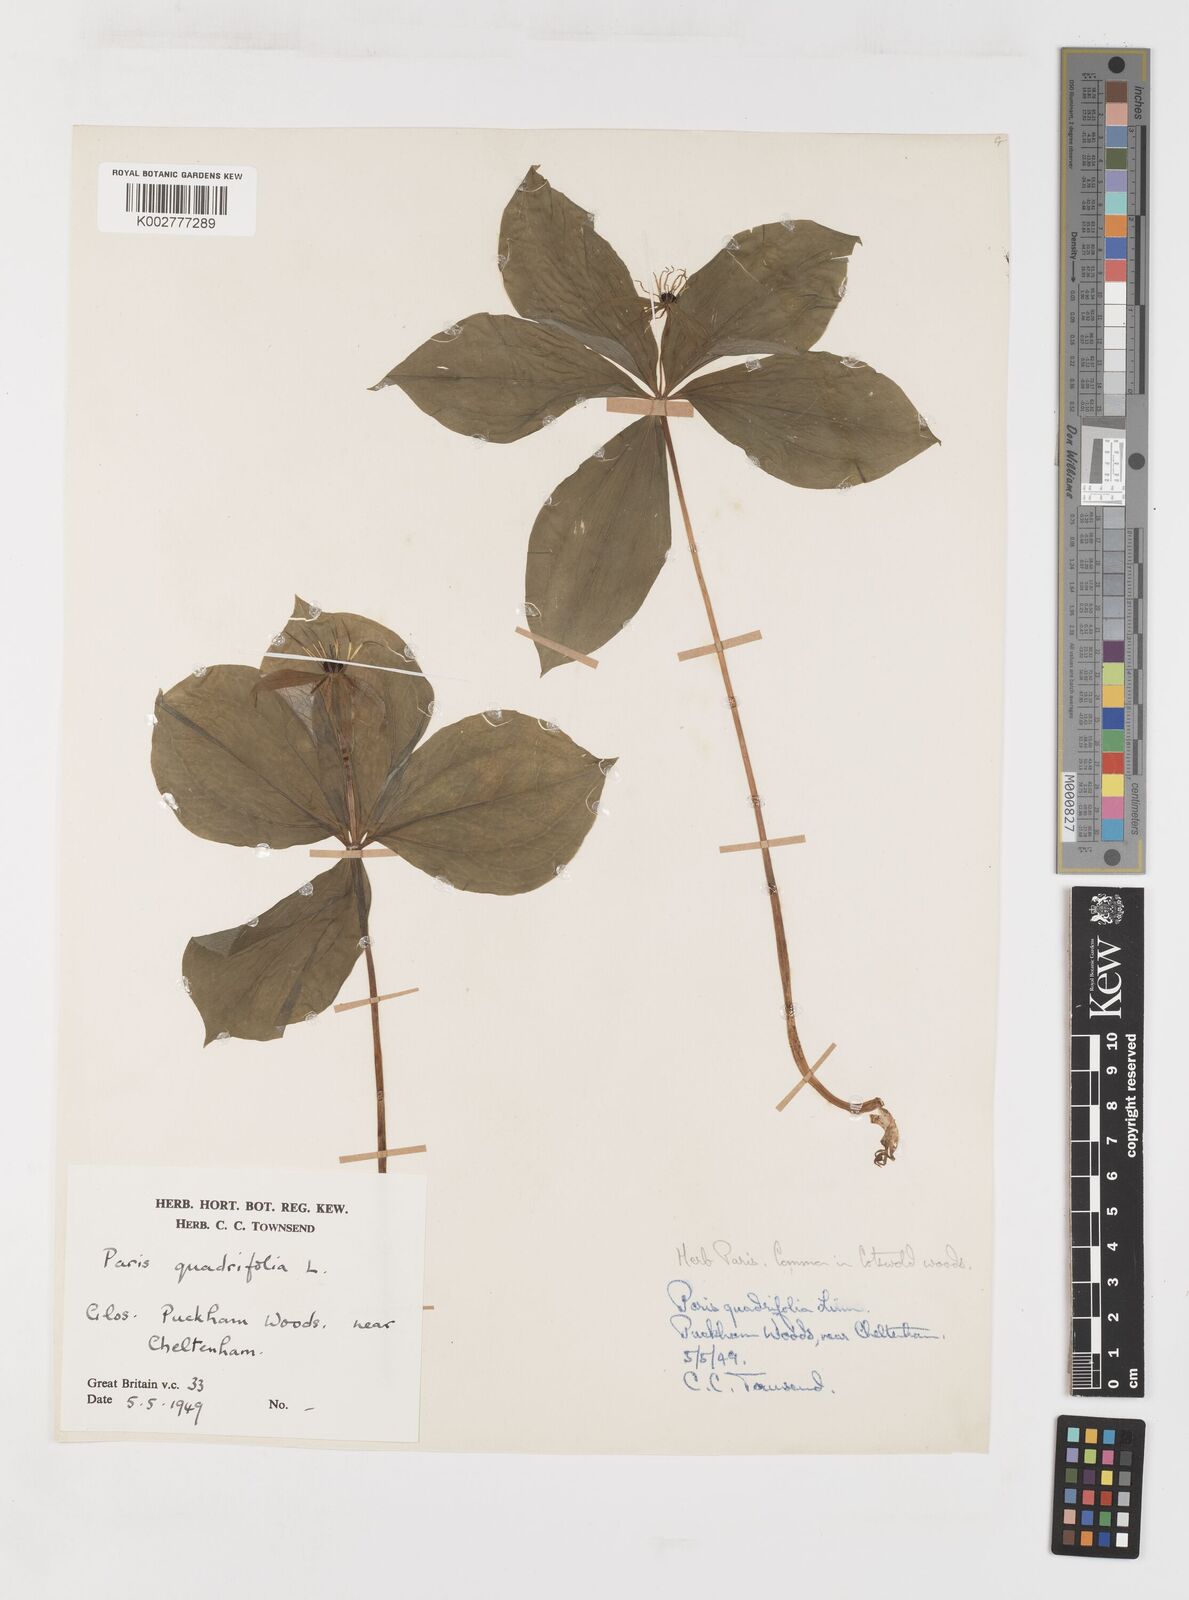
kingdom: Plantae
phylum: Tracheophyta
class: Liliopsida
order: Liliales
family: Melanthiaceae
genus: Paris
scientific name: Paris quadrifolia
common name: Herb-paris
